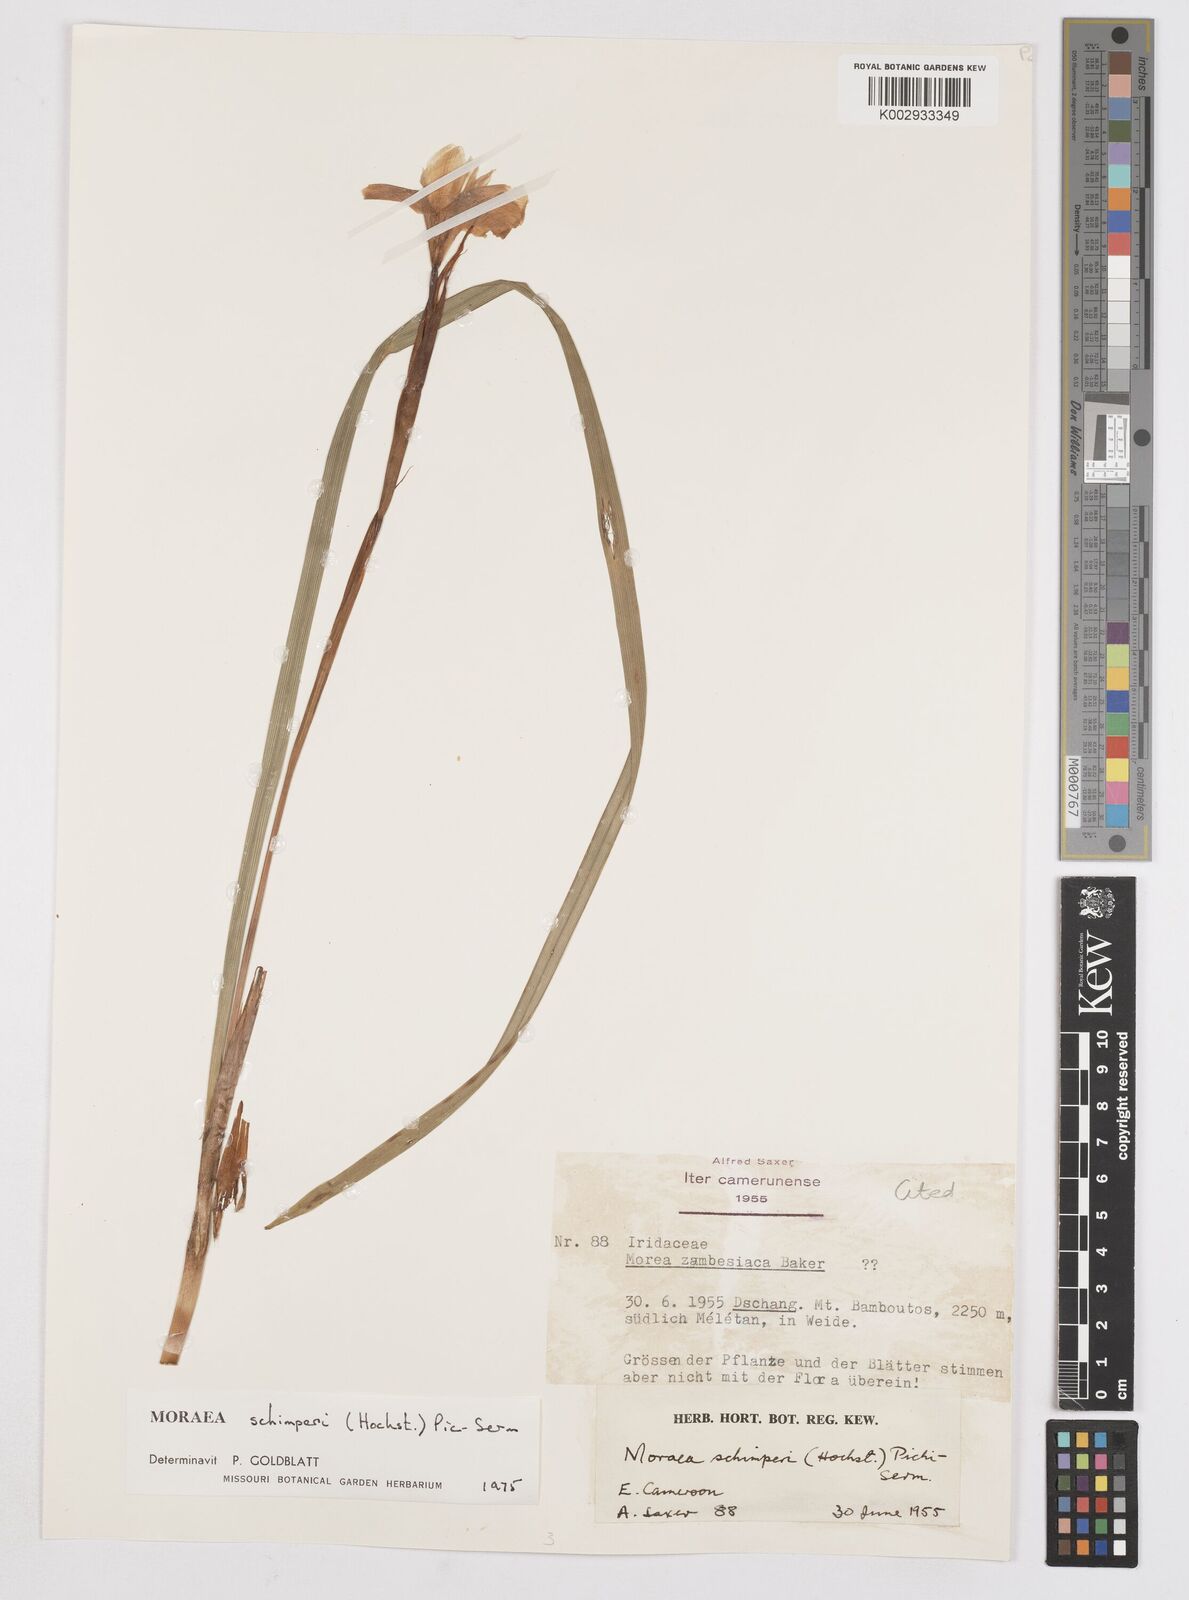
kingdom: Plantae
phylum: Tracheophyta
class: Liliopsida
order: Asparagales
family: Iridaceae
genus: Moraea
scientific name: Moraea schimperi
